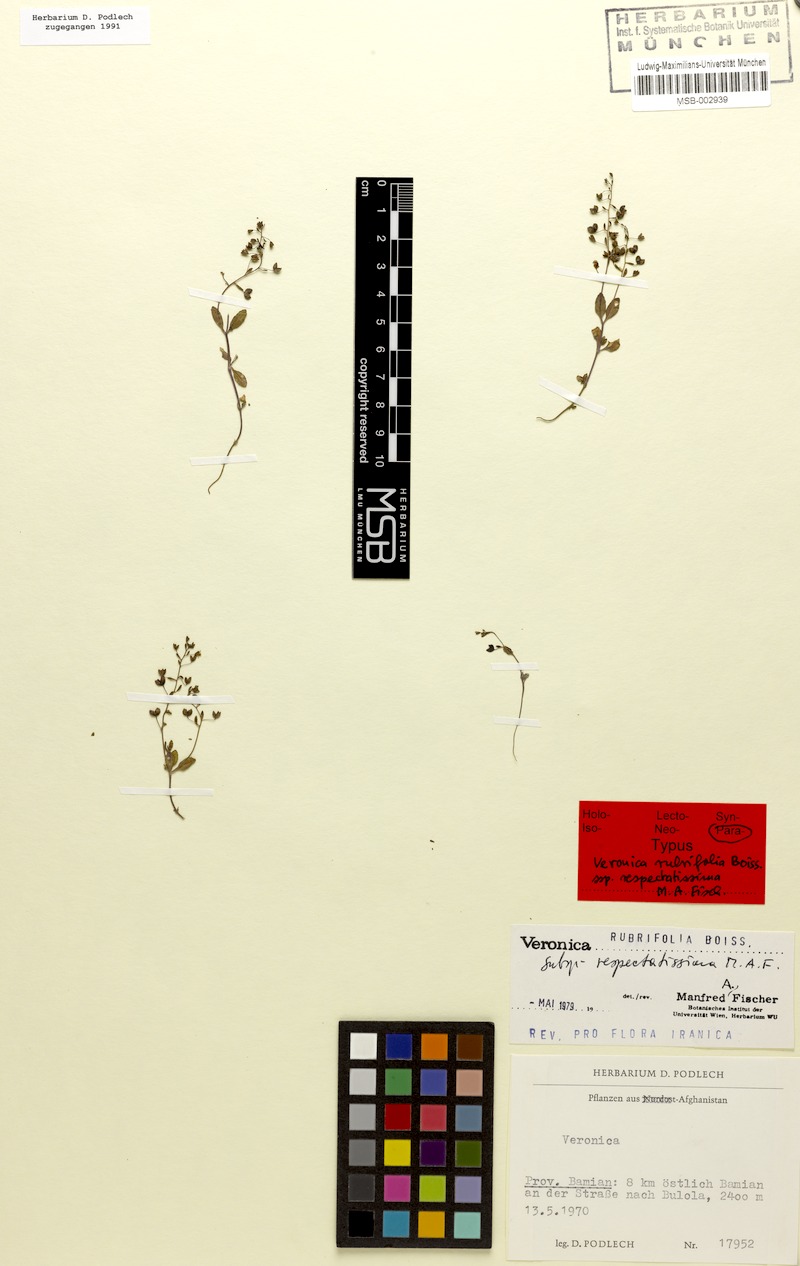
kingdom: Plantae
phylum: Tracheophyta
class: Magnoliopsida
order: Lamiales
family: Plantaginaceae
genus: Veronica
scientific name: Veronica rubrifolia
